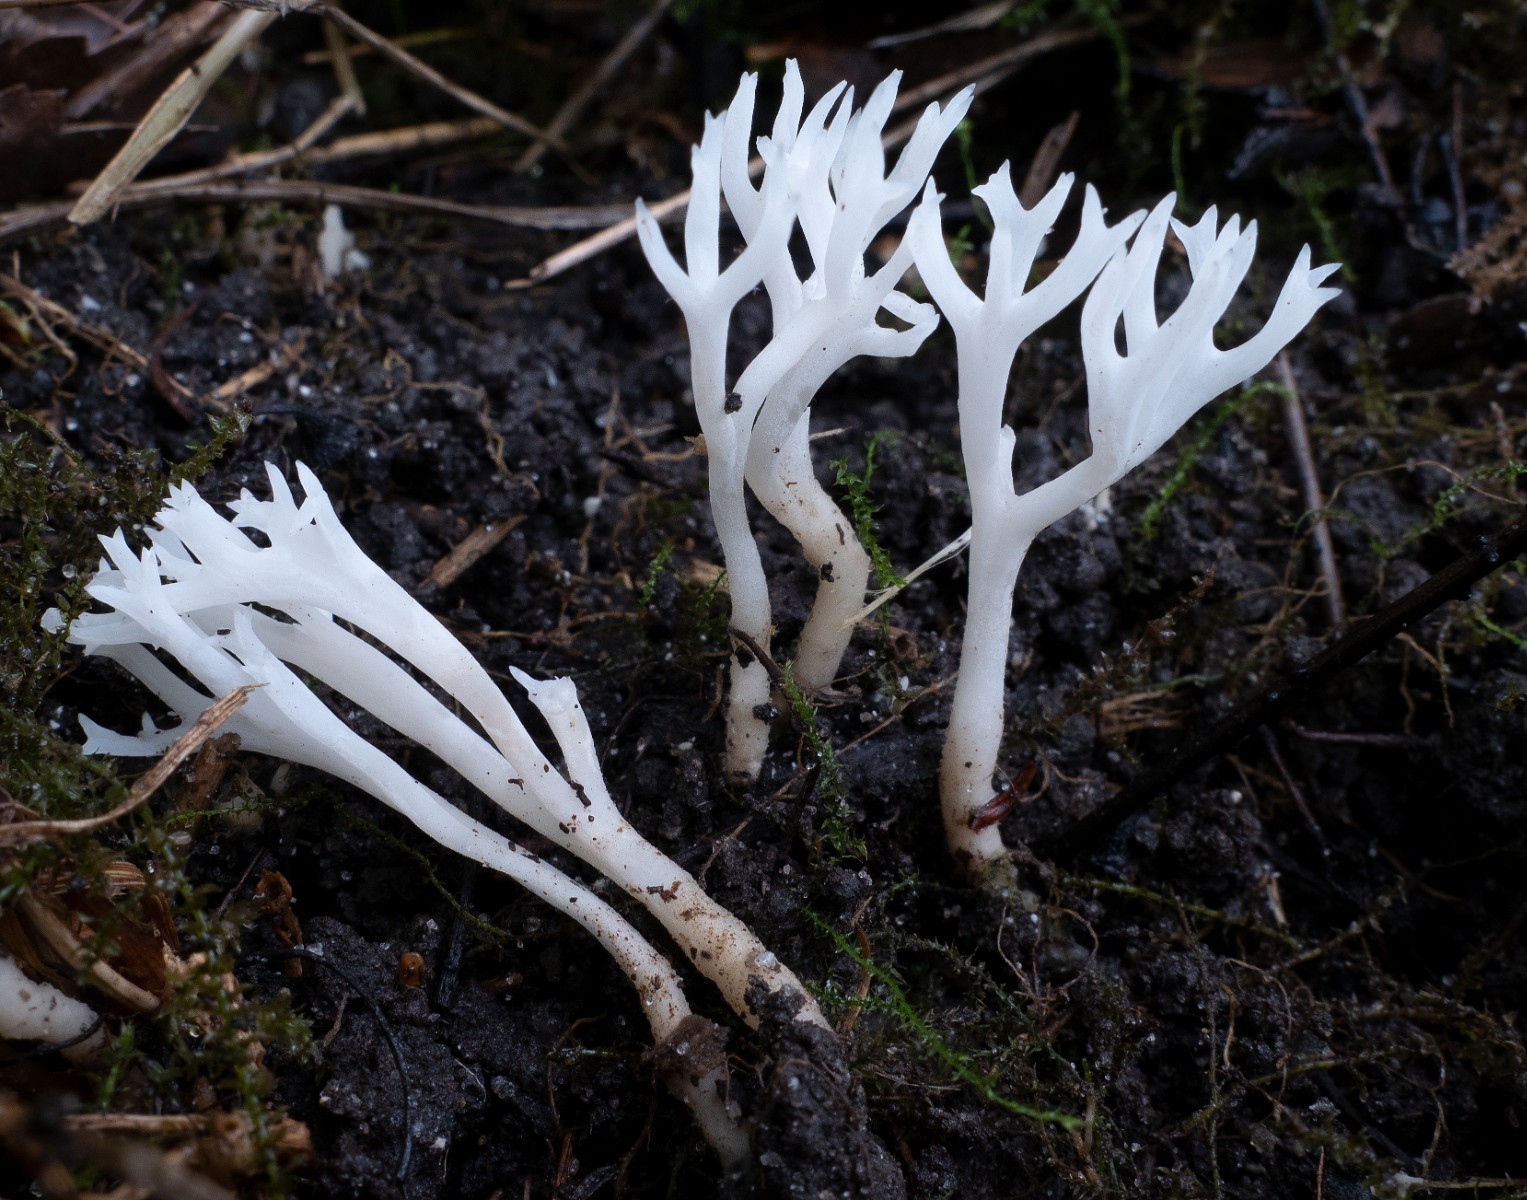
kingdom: Fungi
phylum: Basidiomycota
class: Agaricomycetes
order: Agaricales
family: Clavariaceae
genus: Ramariopsis
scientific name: Ramariopsis
